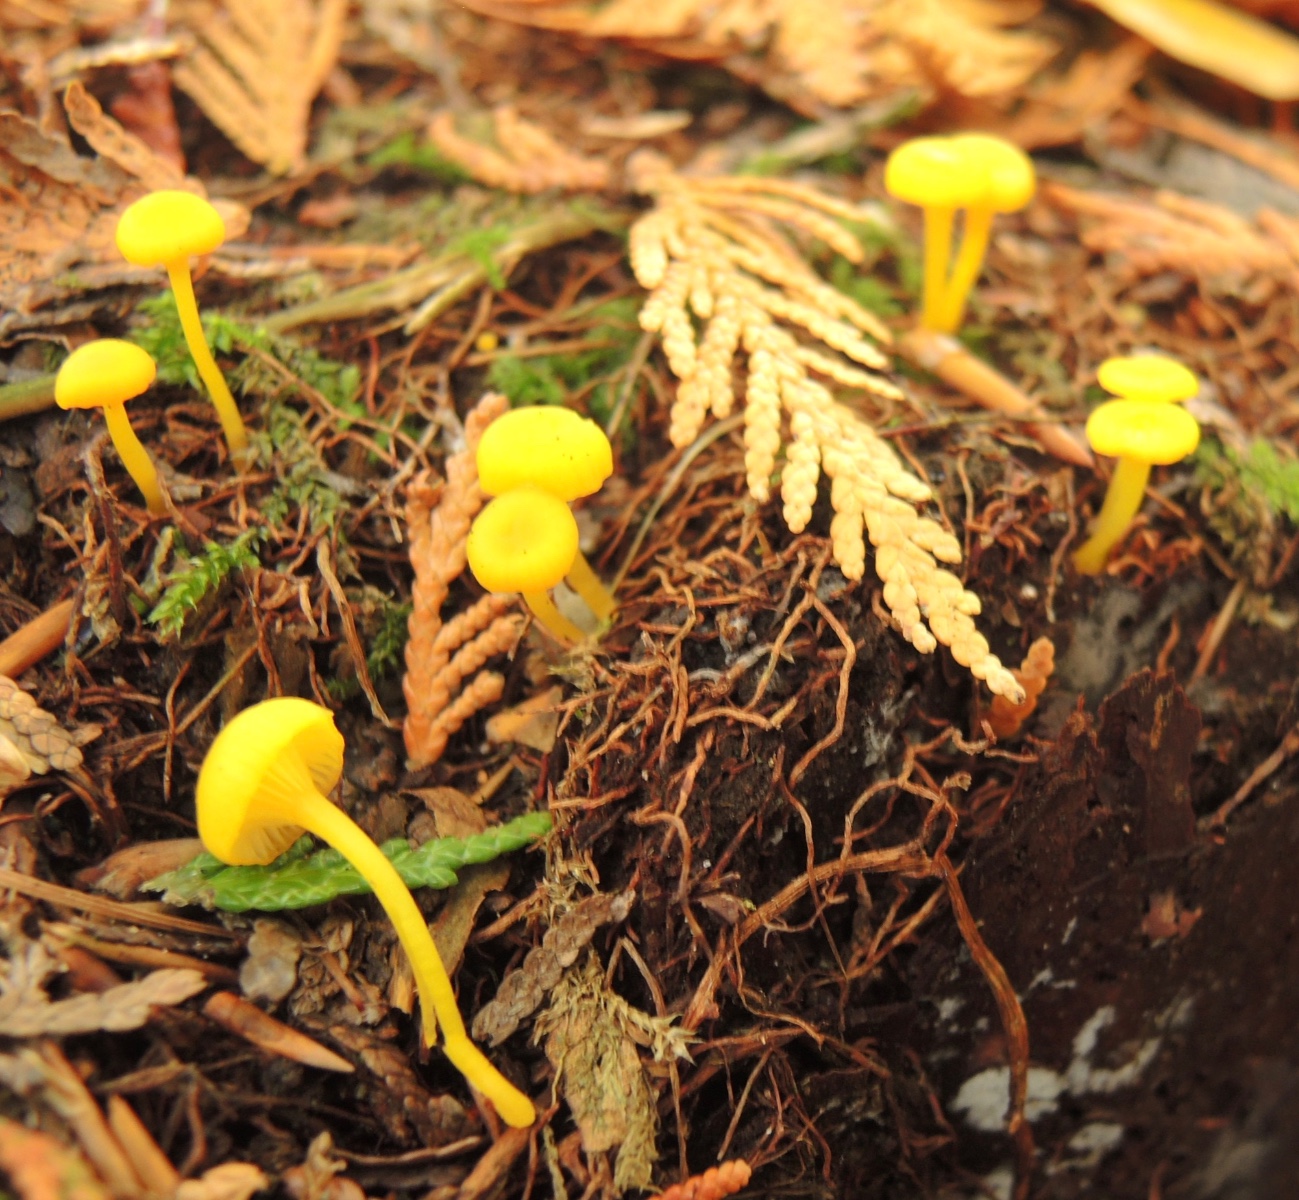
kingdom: Fungi
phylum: Basidiomycota
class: Agaricomycetes
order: Agaricales
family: Hygrophoraceae
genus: Gloioxanthomyces
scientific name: Gloioxanthomyces vitellinus
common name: kromgul vokshat
